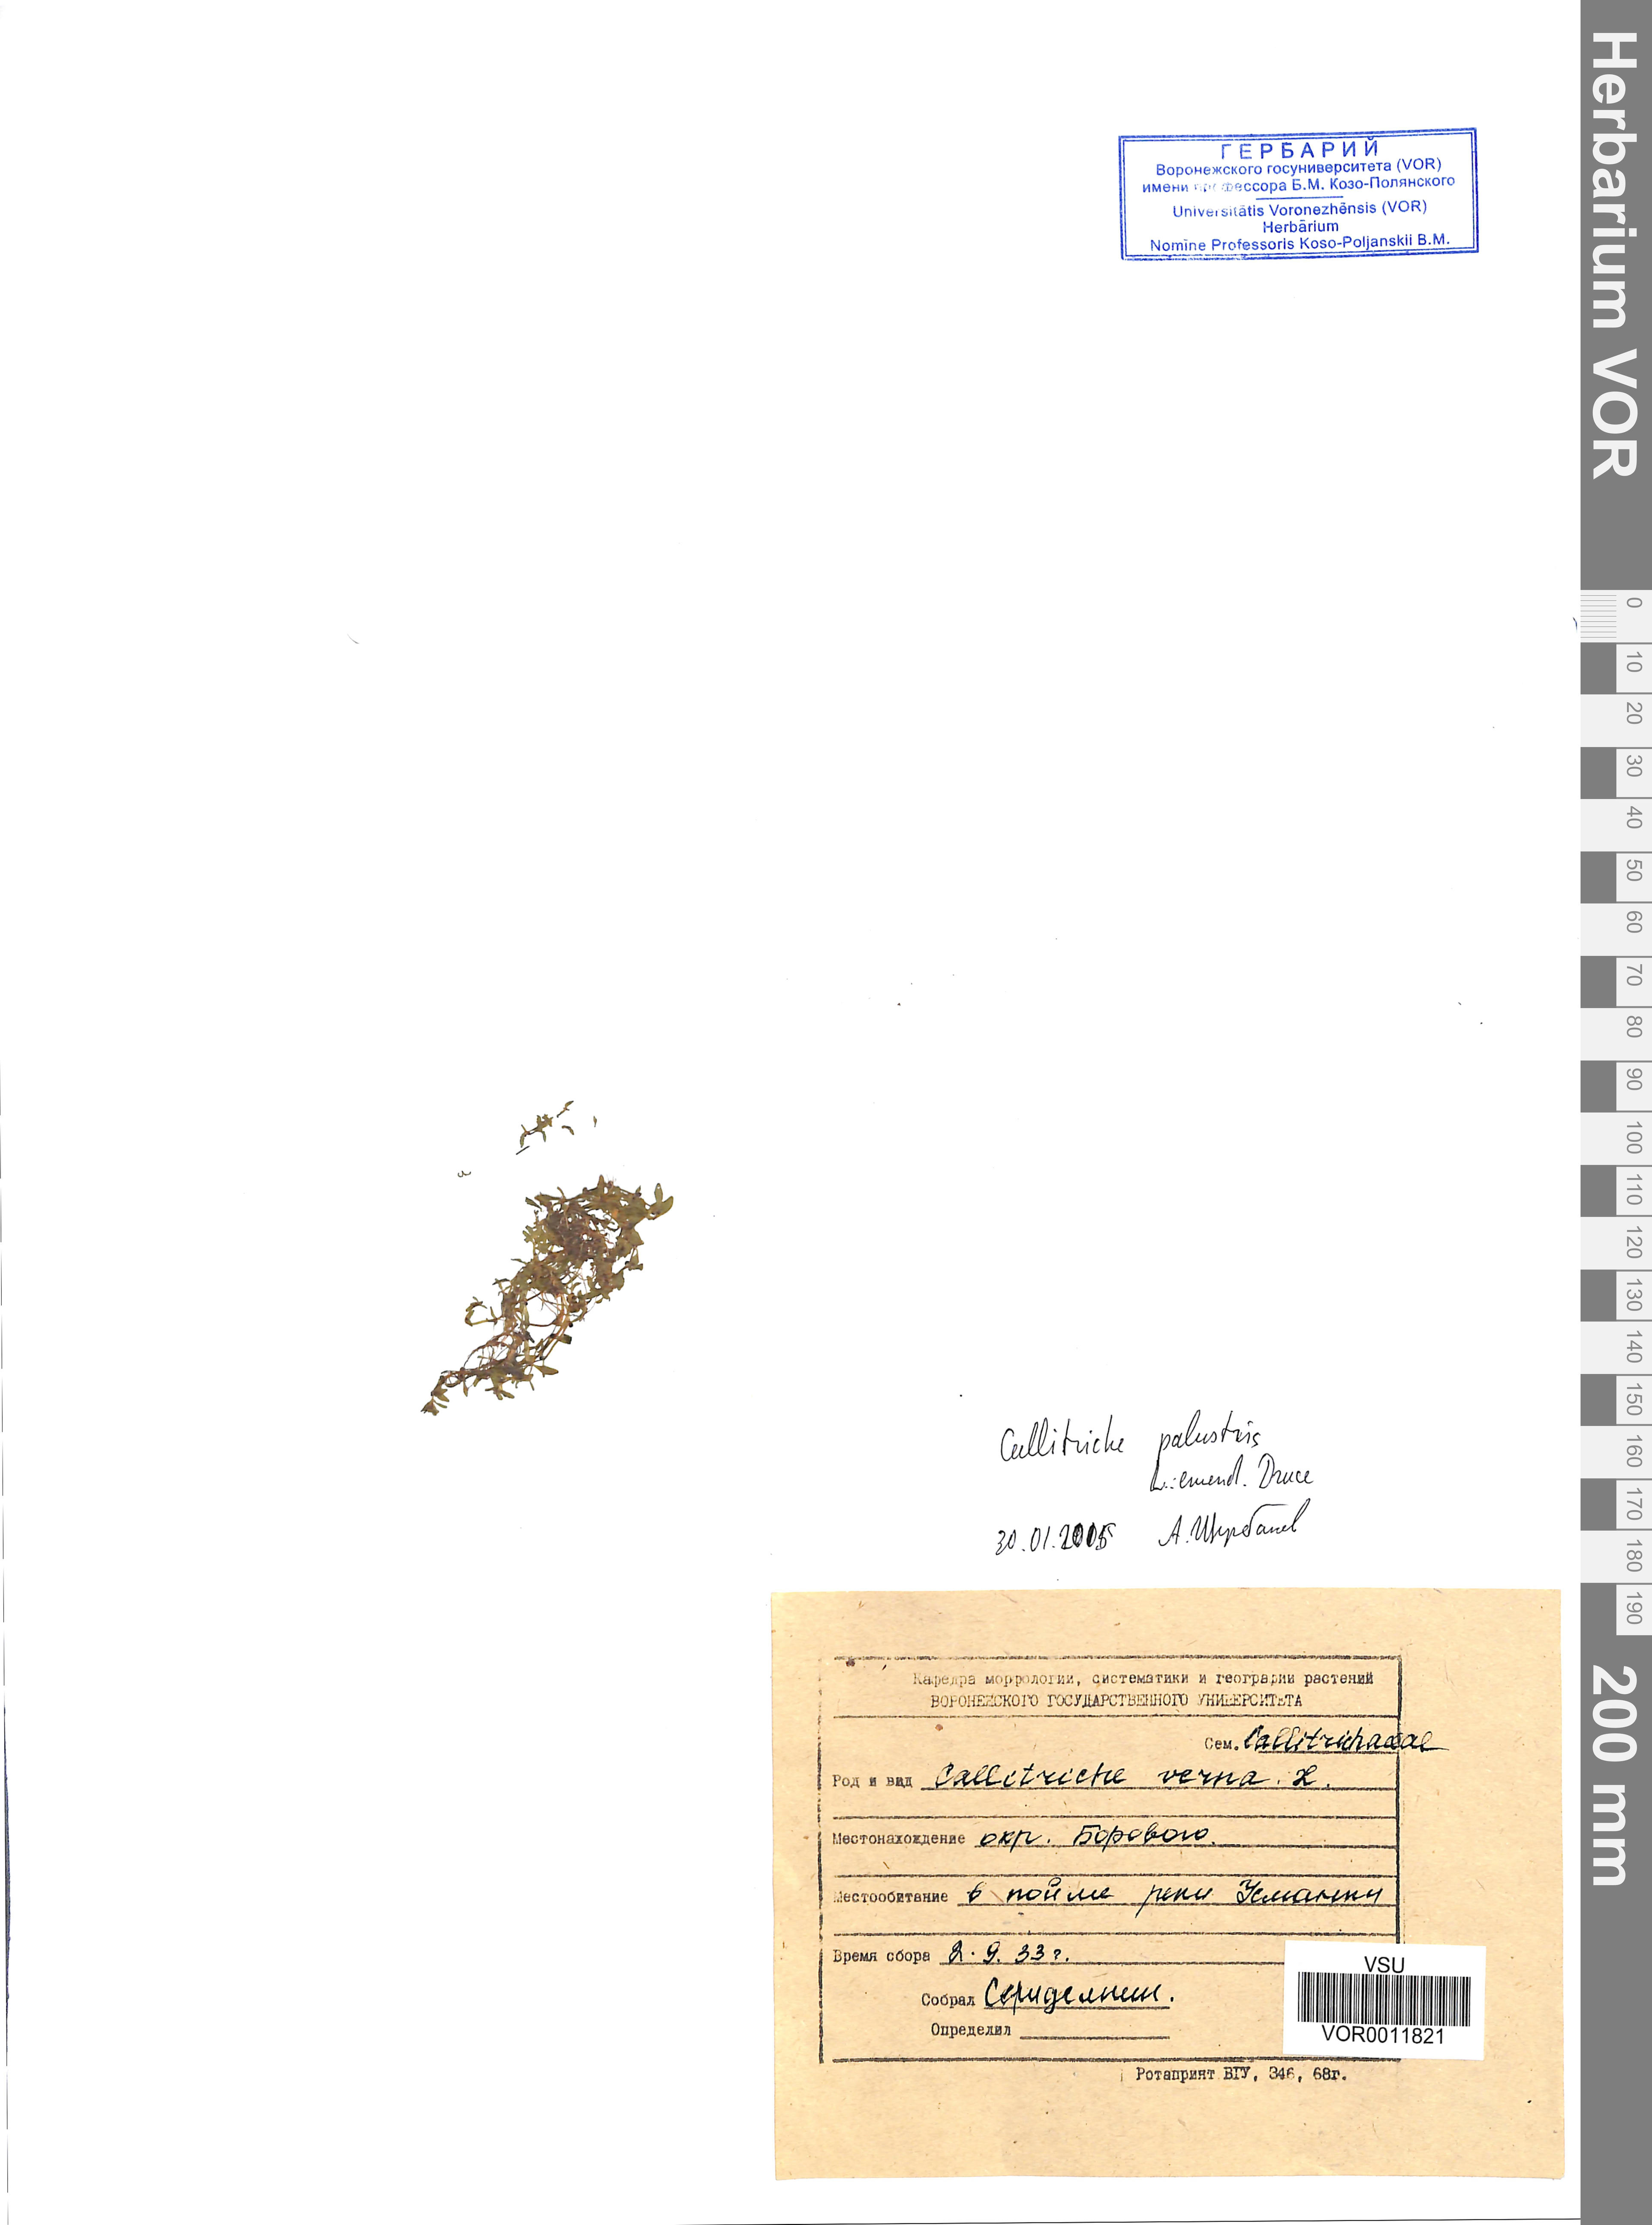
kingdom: Plantae
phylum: Tracheophyta
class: Magnoliopsida
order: Lamiales
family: Plantaginaceae
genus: Callitriche
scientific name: Callitriche palustris
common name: Spring water-starwort
